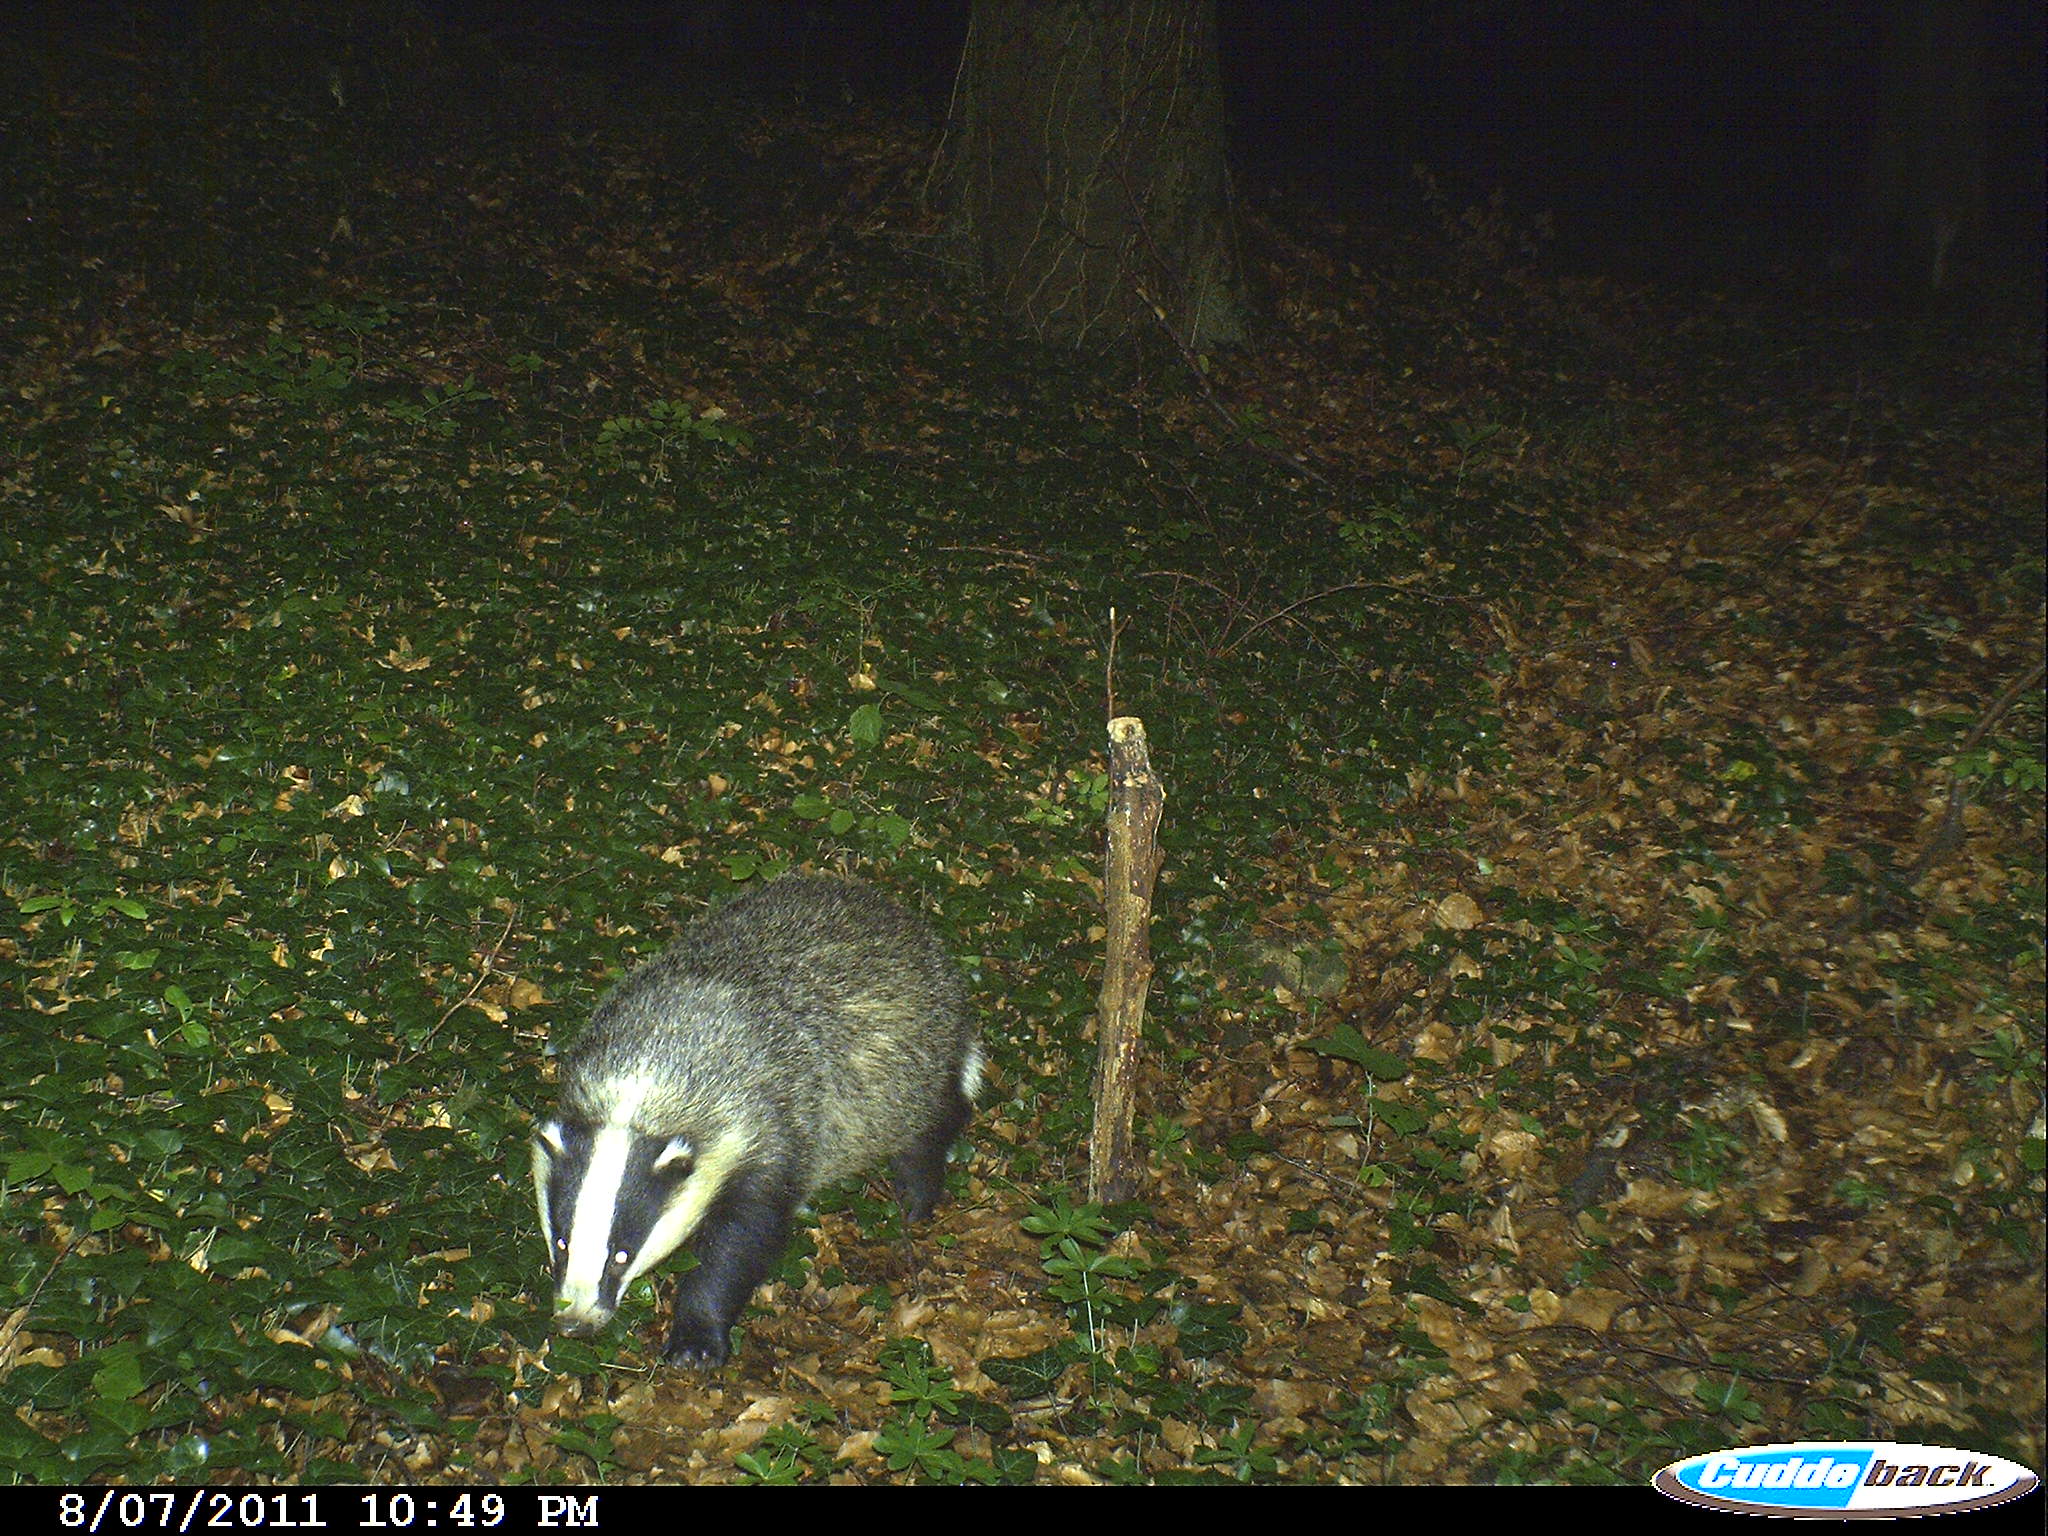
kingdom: Animalia
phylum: Chordata
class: Mammalia
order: Carnivora
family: Mustelidae
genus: Meles
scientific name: Meles meles
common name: Eurasian badger
